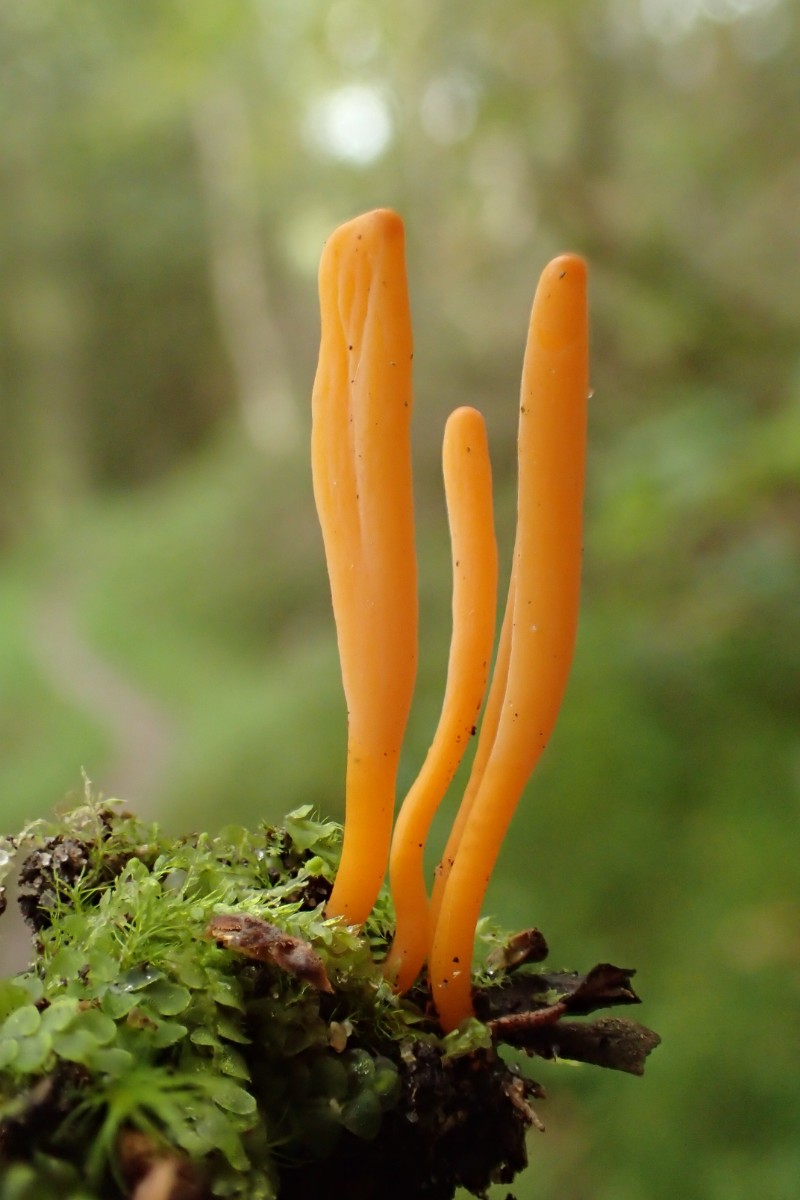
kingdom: Fungi
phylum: Basidiomycota
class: Agaricomycetes
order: Agaricales
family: Clavariaceae
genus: Clavulinopsis
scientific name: Clavulinopsis luteoalba
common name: abrikos-køllesvamp
